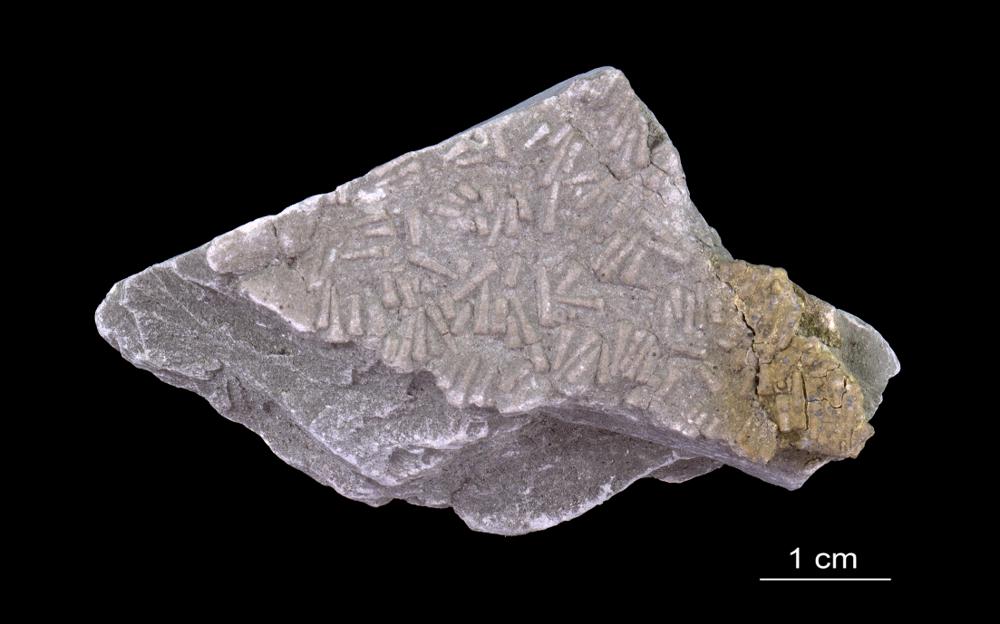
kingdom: Animalia
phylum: Annelida
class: Polychaeta
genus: Volborthella
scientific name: Volborthella tenuis
